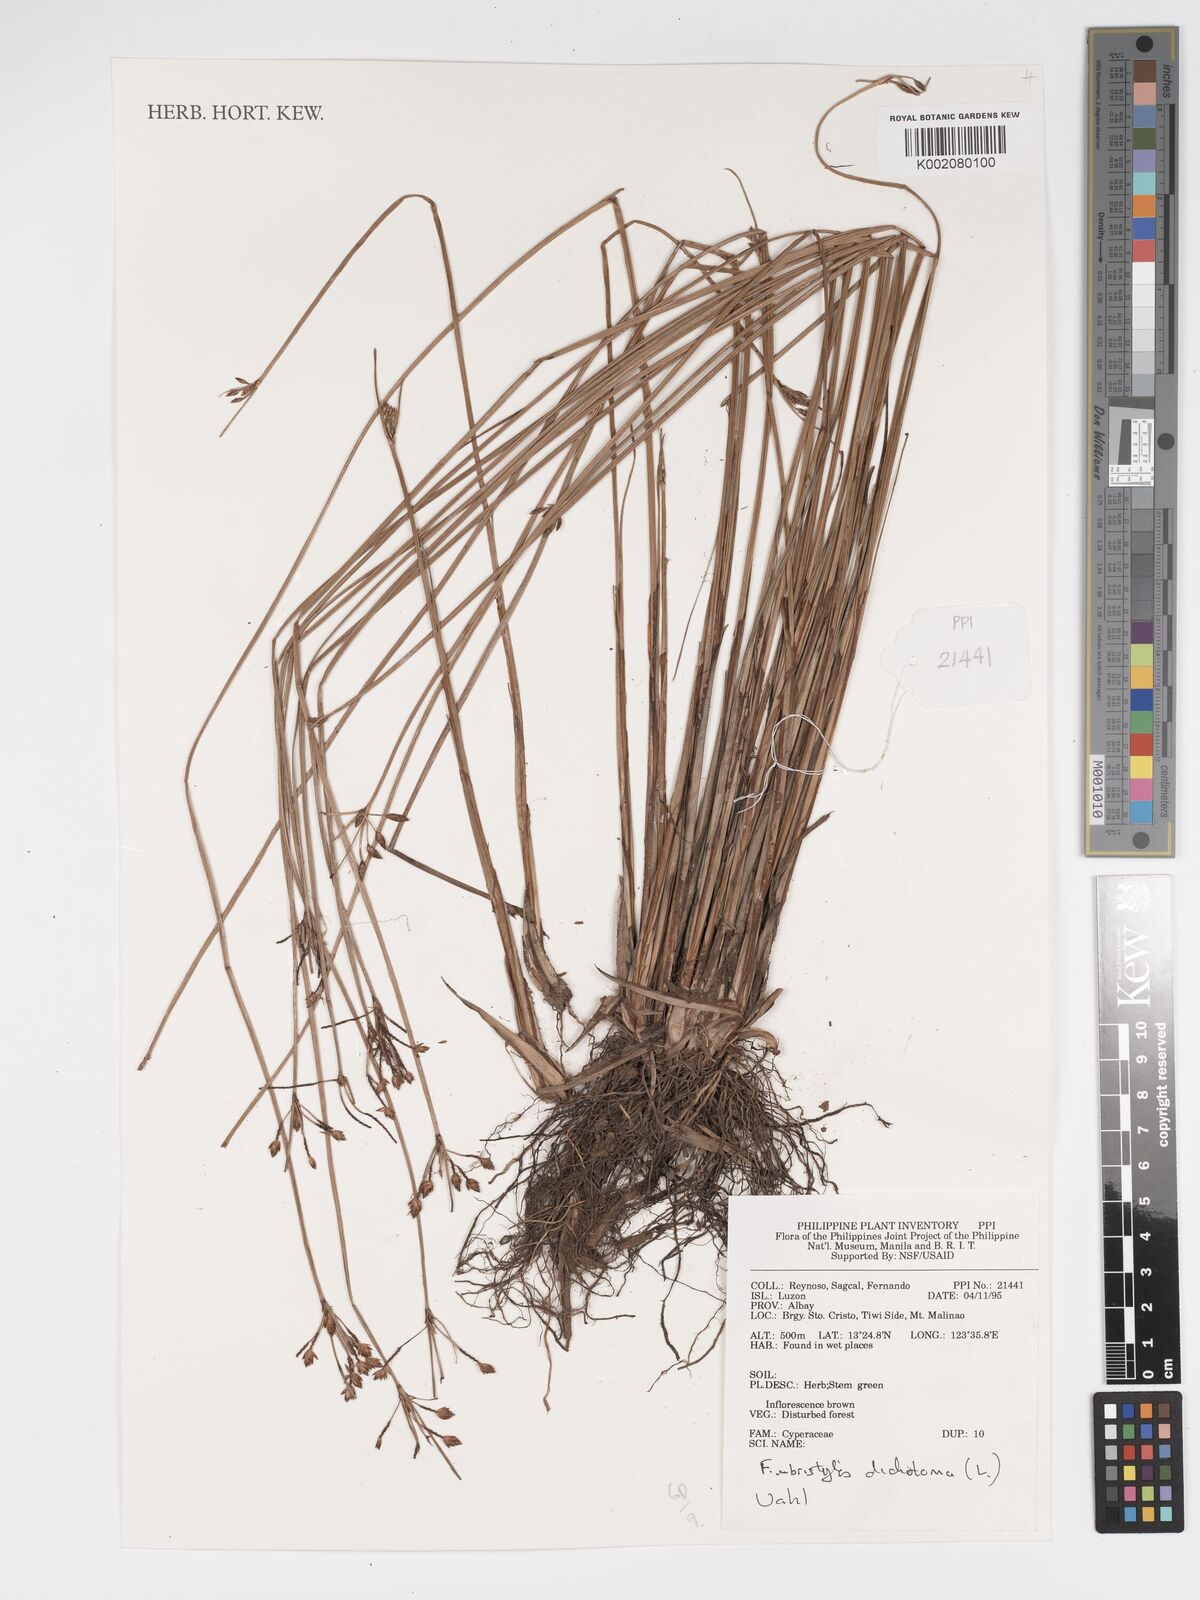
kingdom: Plantae
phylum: Tracheophyta
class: Liliopsida
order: Poales
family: Cyperaceae
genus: Fimbristylis
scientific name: Fimbristylis dichotoma
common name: Forked fimbry
